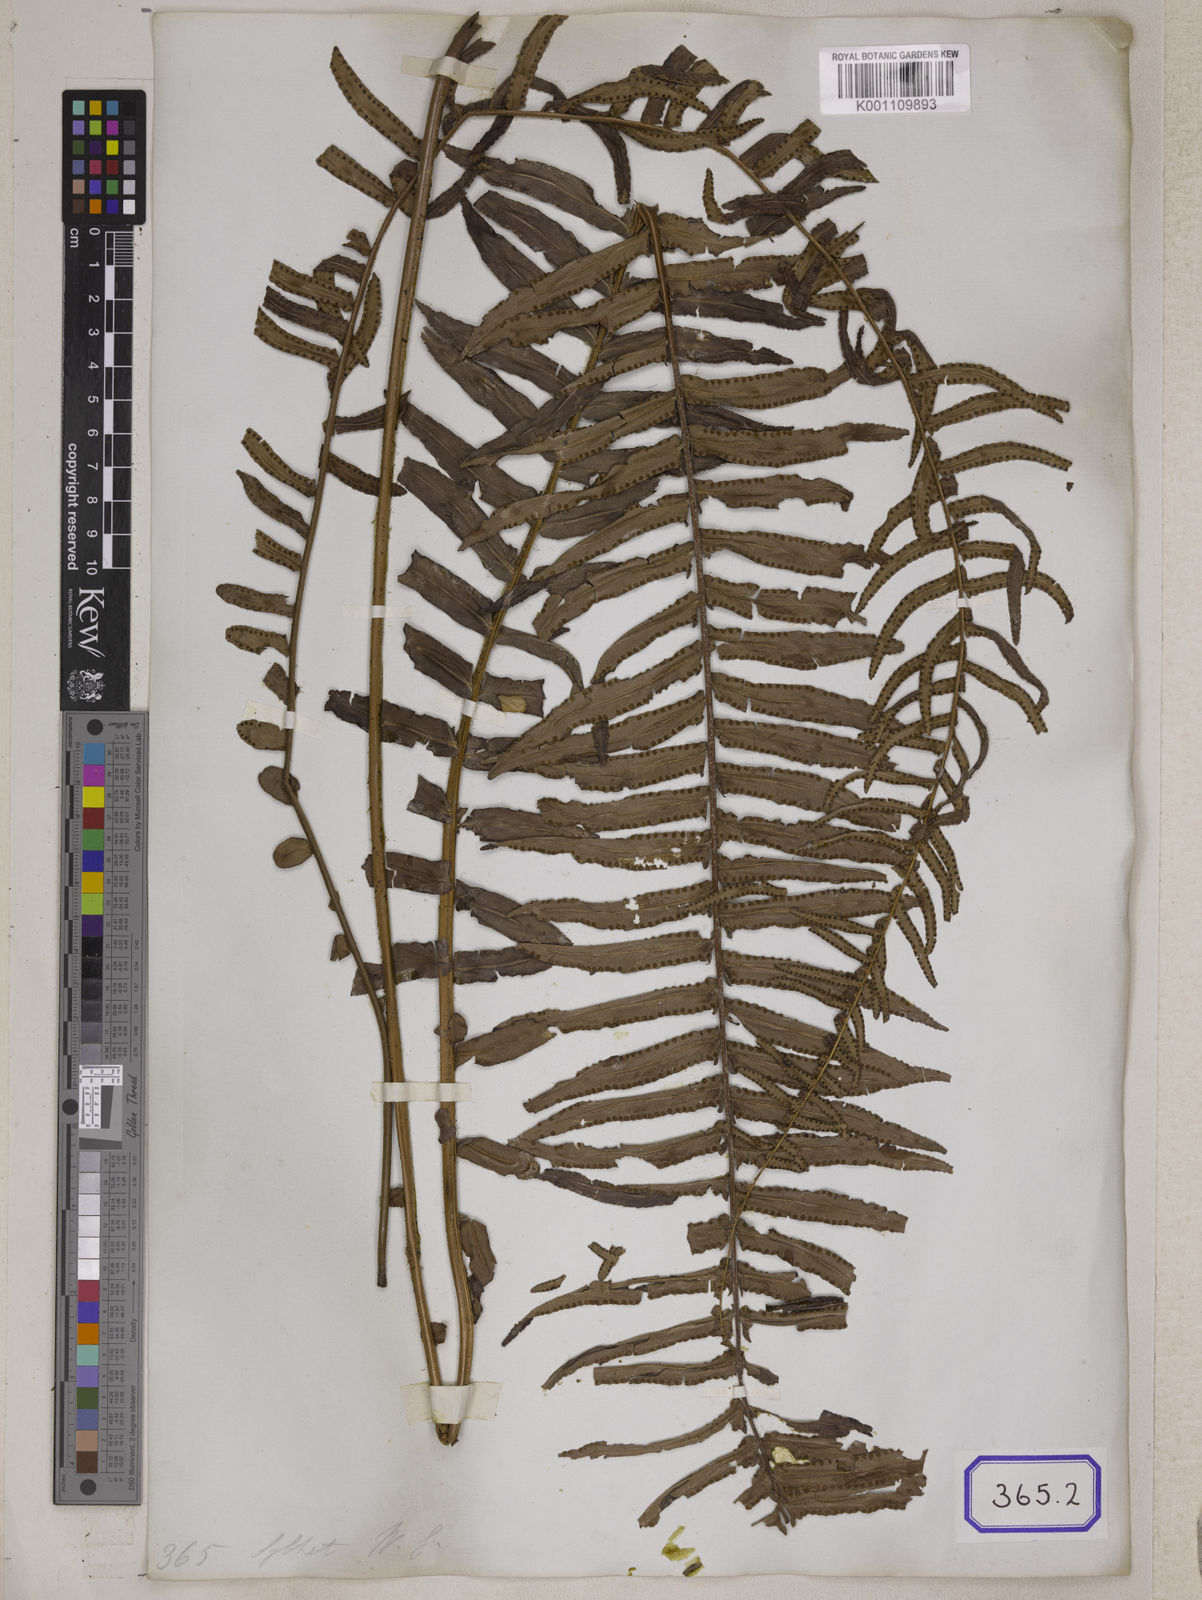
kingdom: Plantae
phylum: Tracheophyta
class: Polypodiopsida
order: Polypodiales
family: Nephrolepidaceae
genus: Nephrolepis
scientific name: Nephrolepis cordifolia
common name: Narrow swordfern
